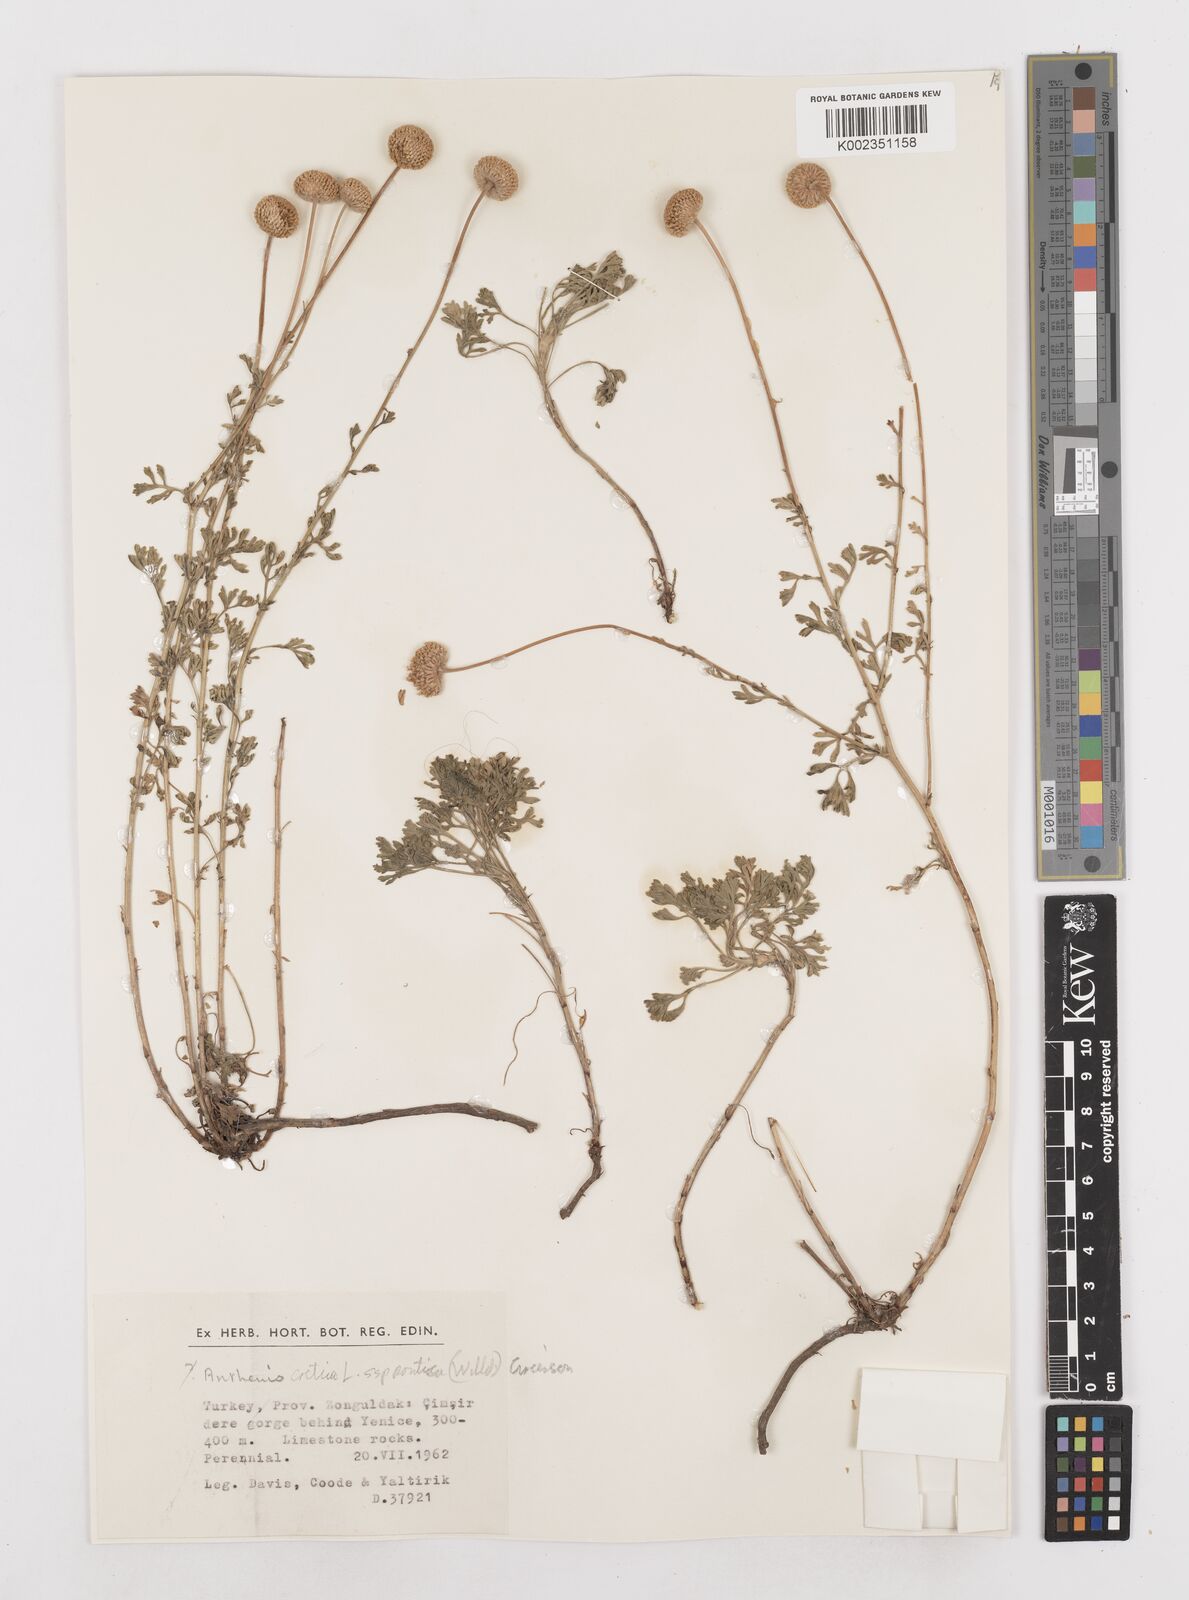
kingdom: Plantae
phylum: Tracheophyta
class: Magnoliopsida
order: Asterales
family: Asteraceae
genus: Anthemis
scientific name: Anthemis cretica
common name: Mountain dog-daisy
